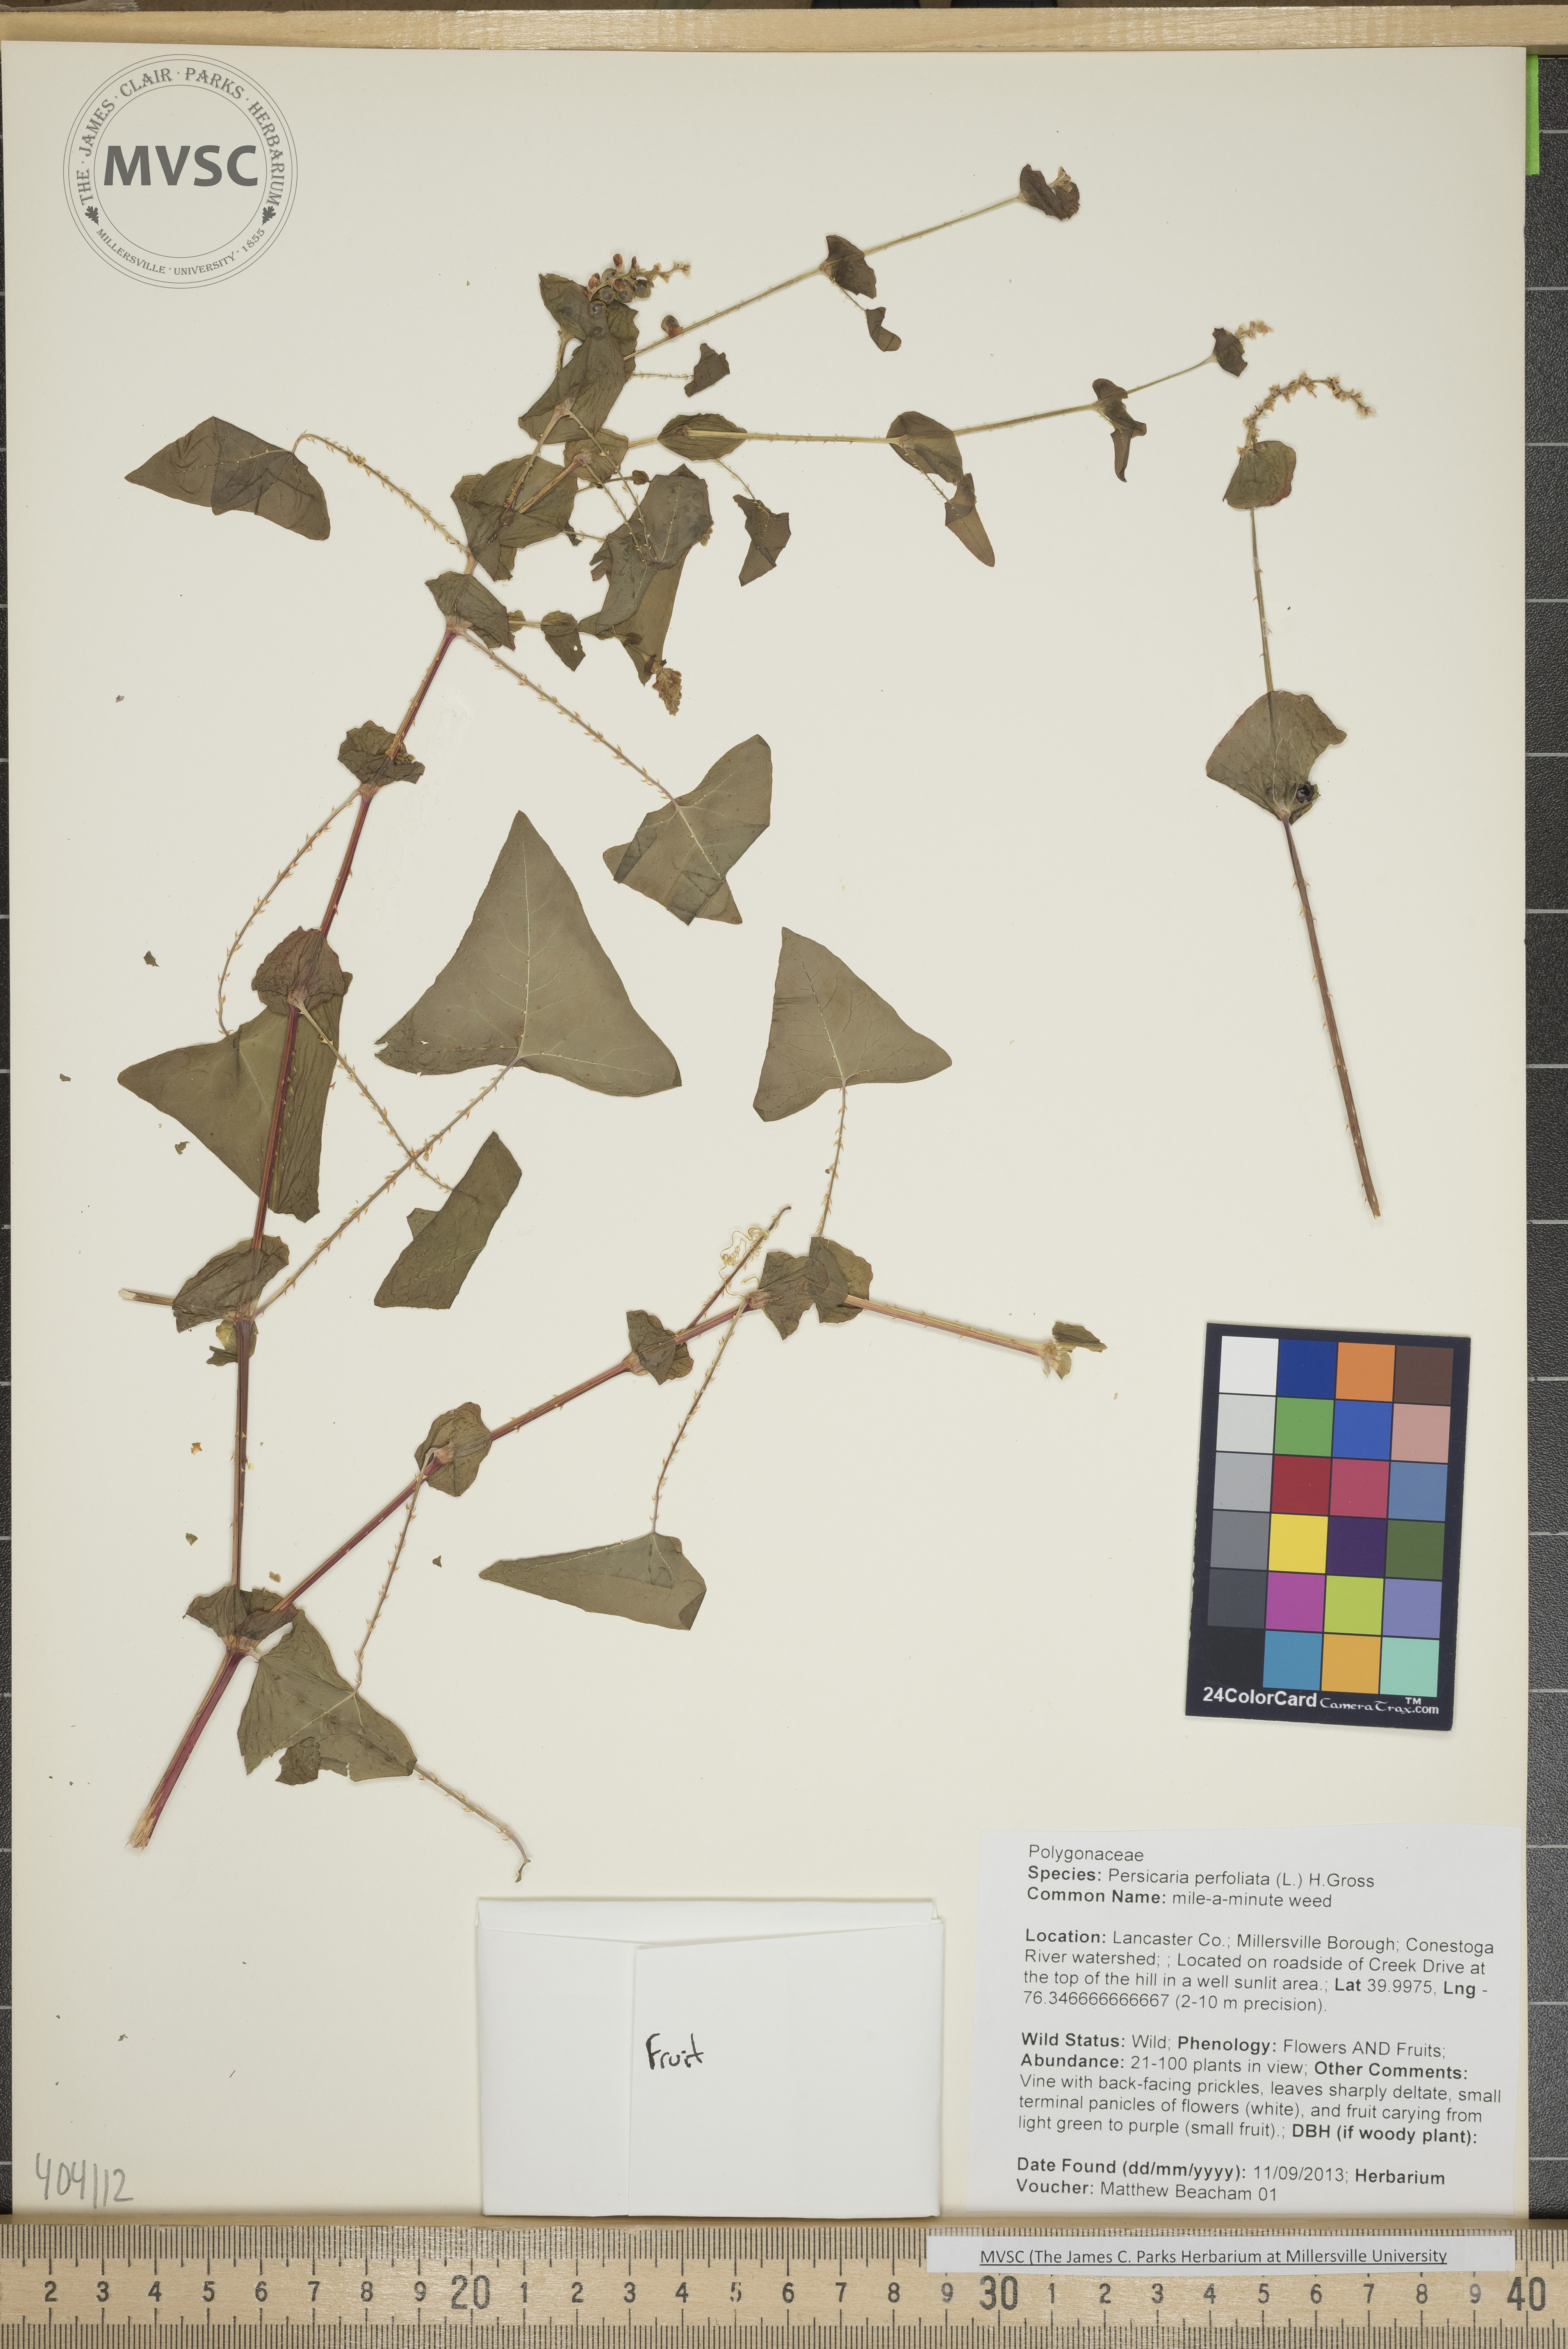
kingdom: Plantae
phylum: Tracheophyta
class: Magnoliopsida
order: Caryophyllales
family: Polygonaceae
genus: Persicaria
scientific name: Persicaria perfoliata
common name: mile-a-minute weed
